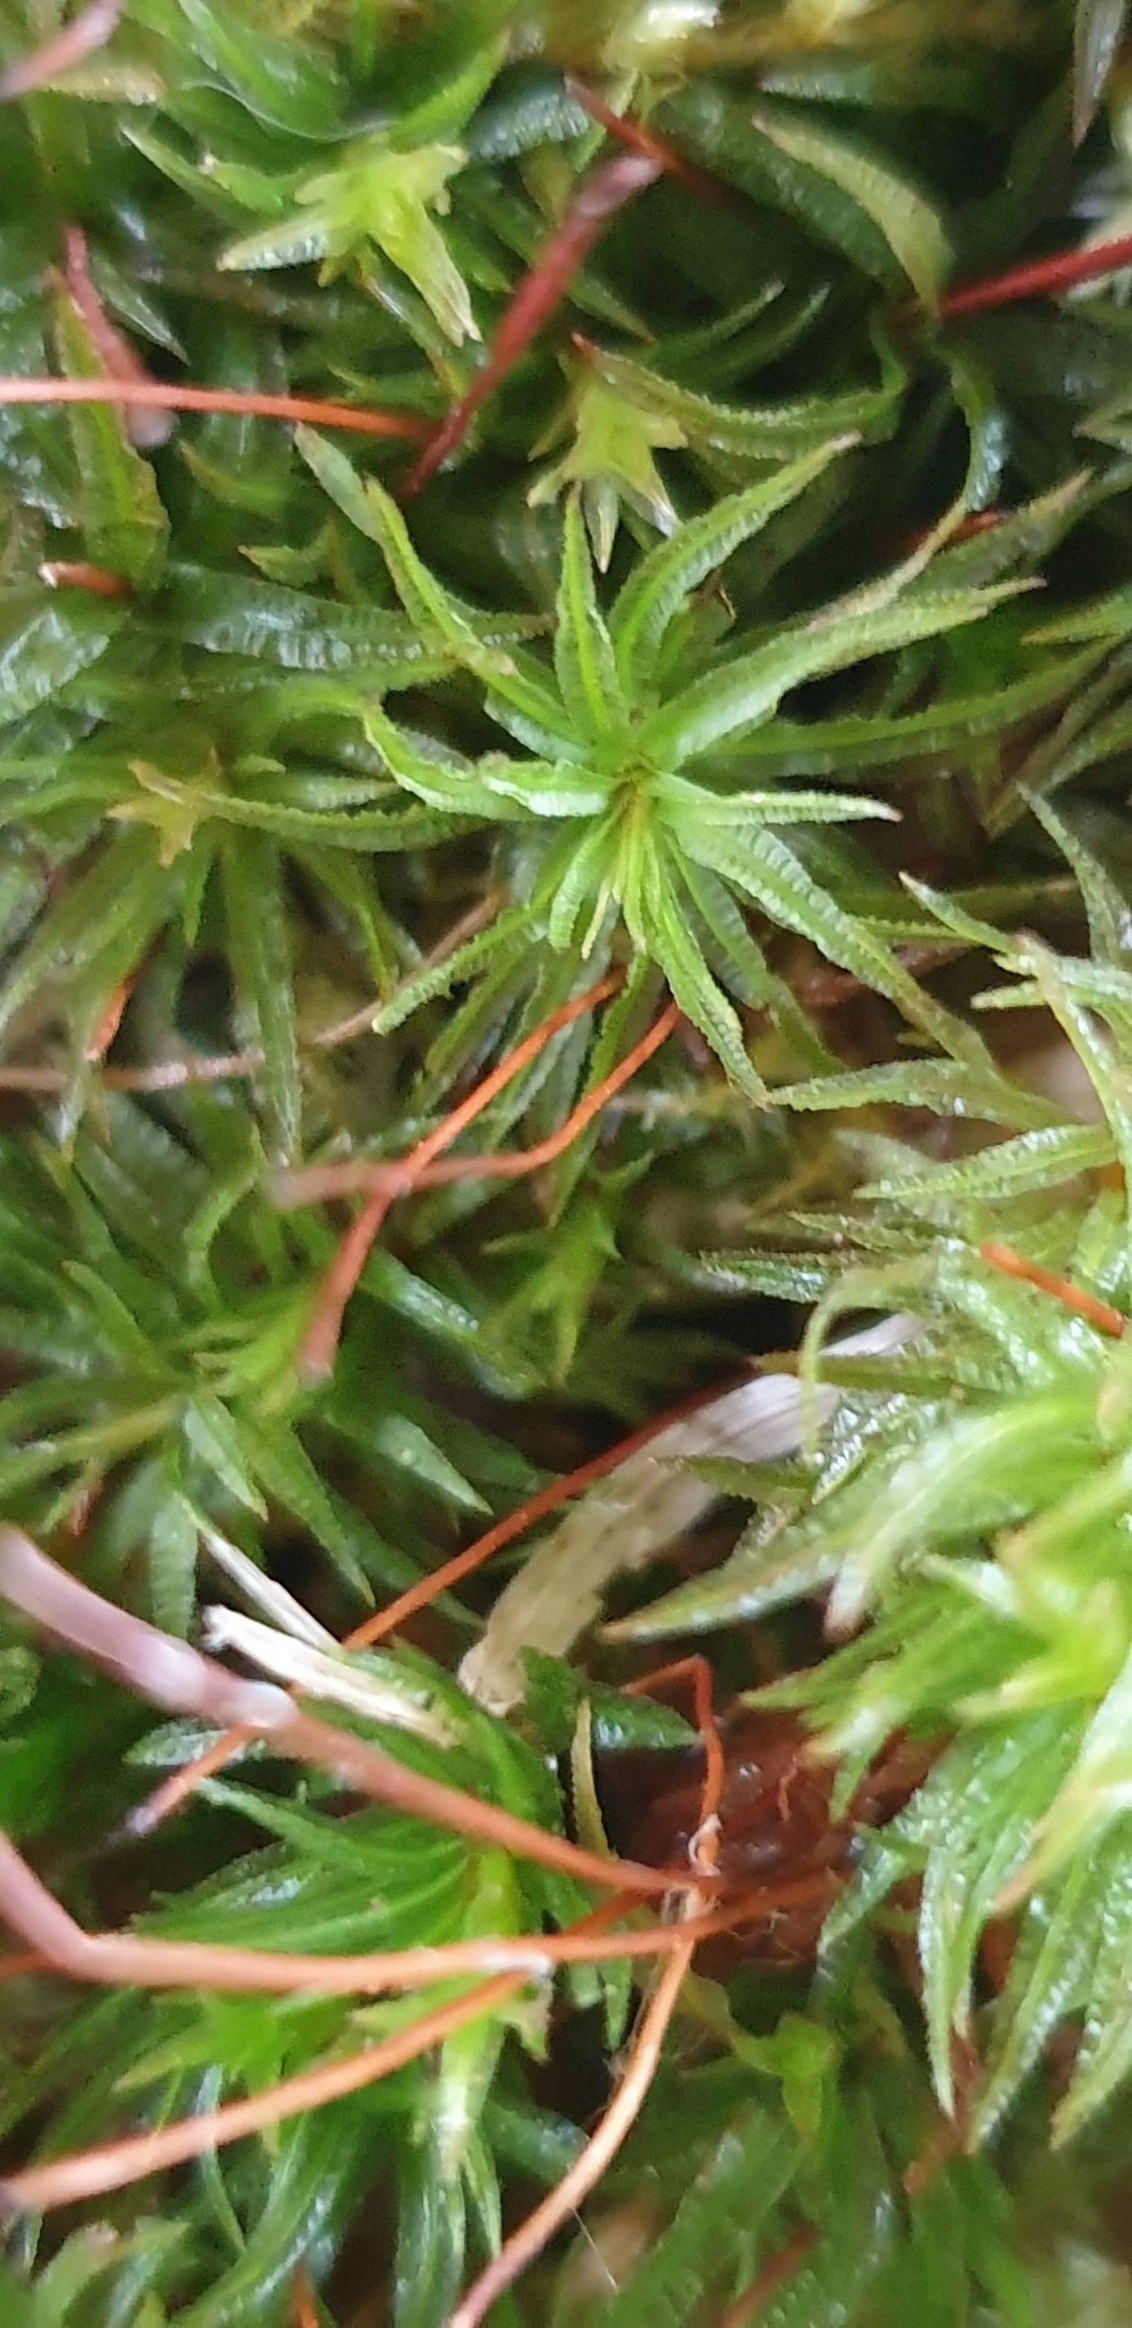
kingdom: Plantae
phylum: Bryophyta
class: Polytrichopsida
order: Polytrichales
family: Polytrichaceae
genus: Atrichum
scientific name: Atrichum undulatum
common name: Bølget katrinemos
